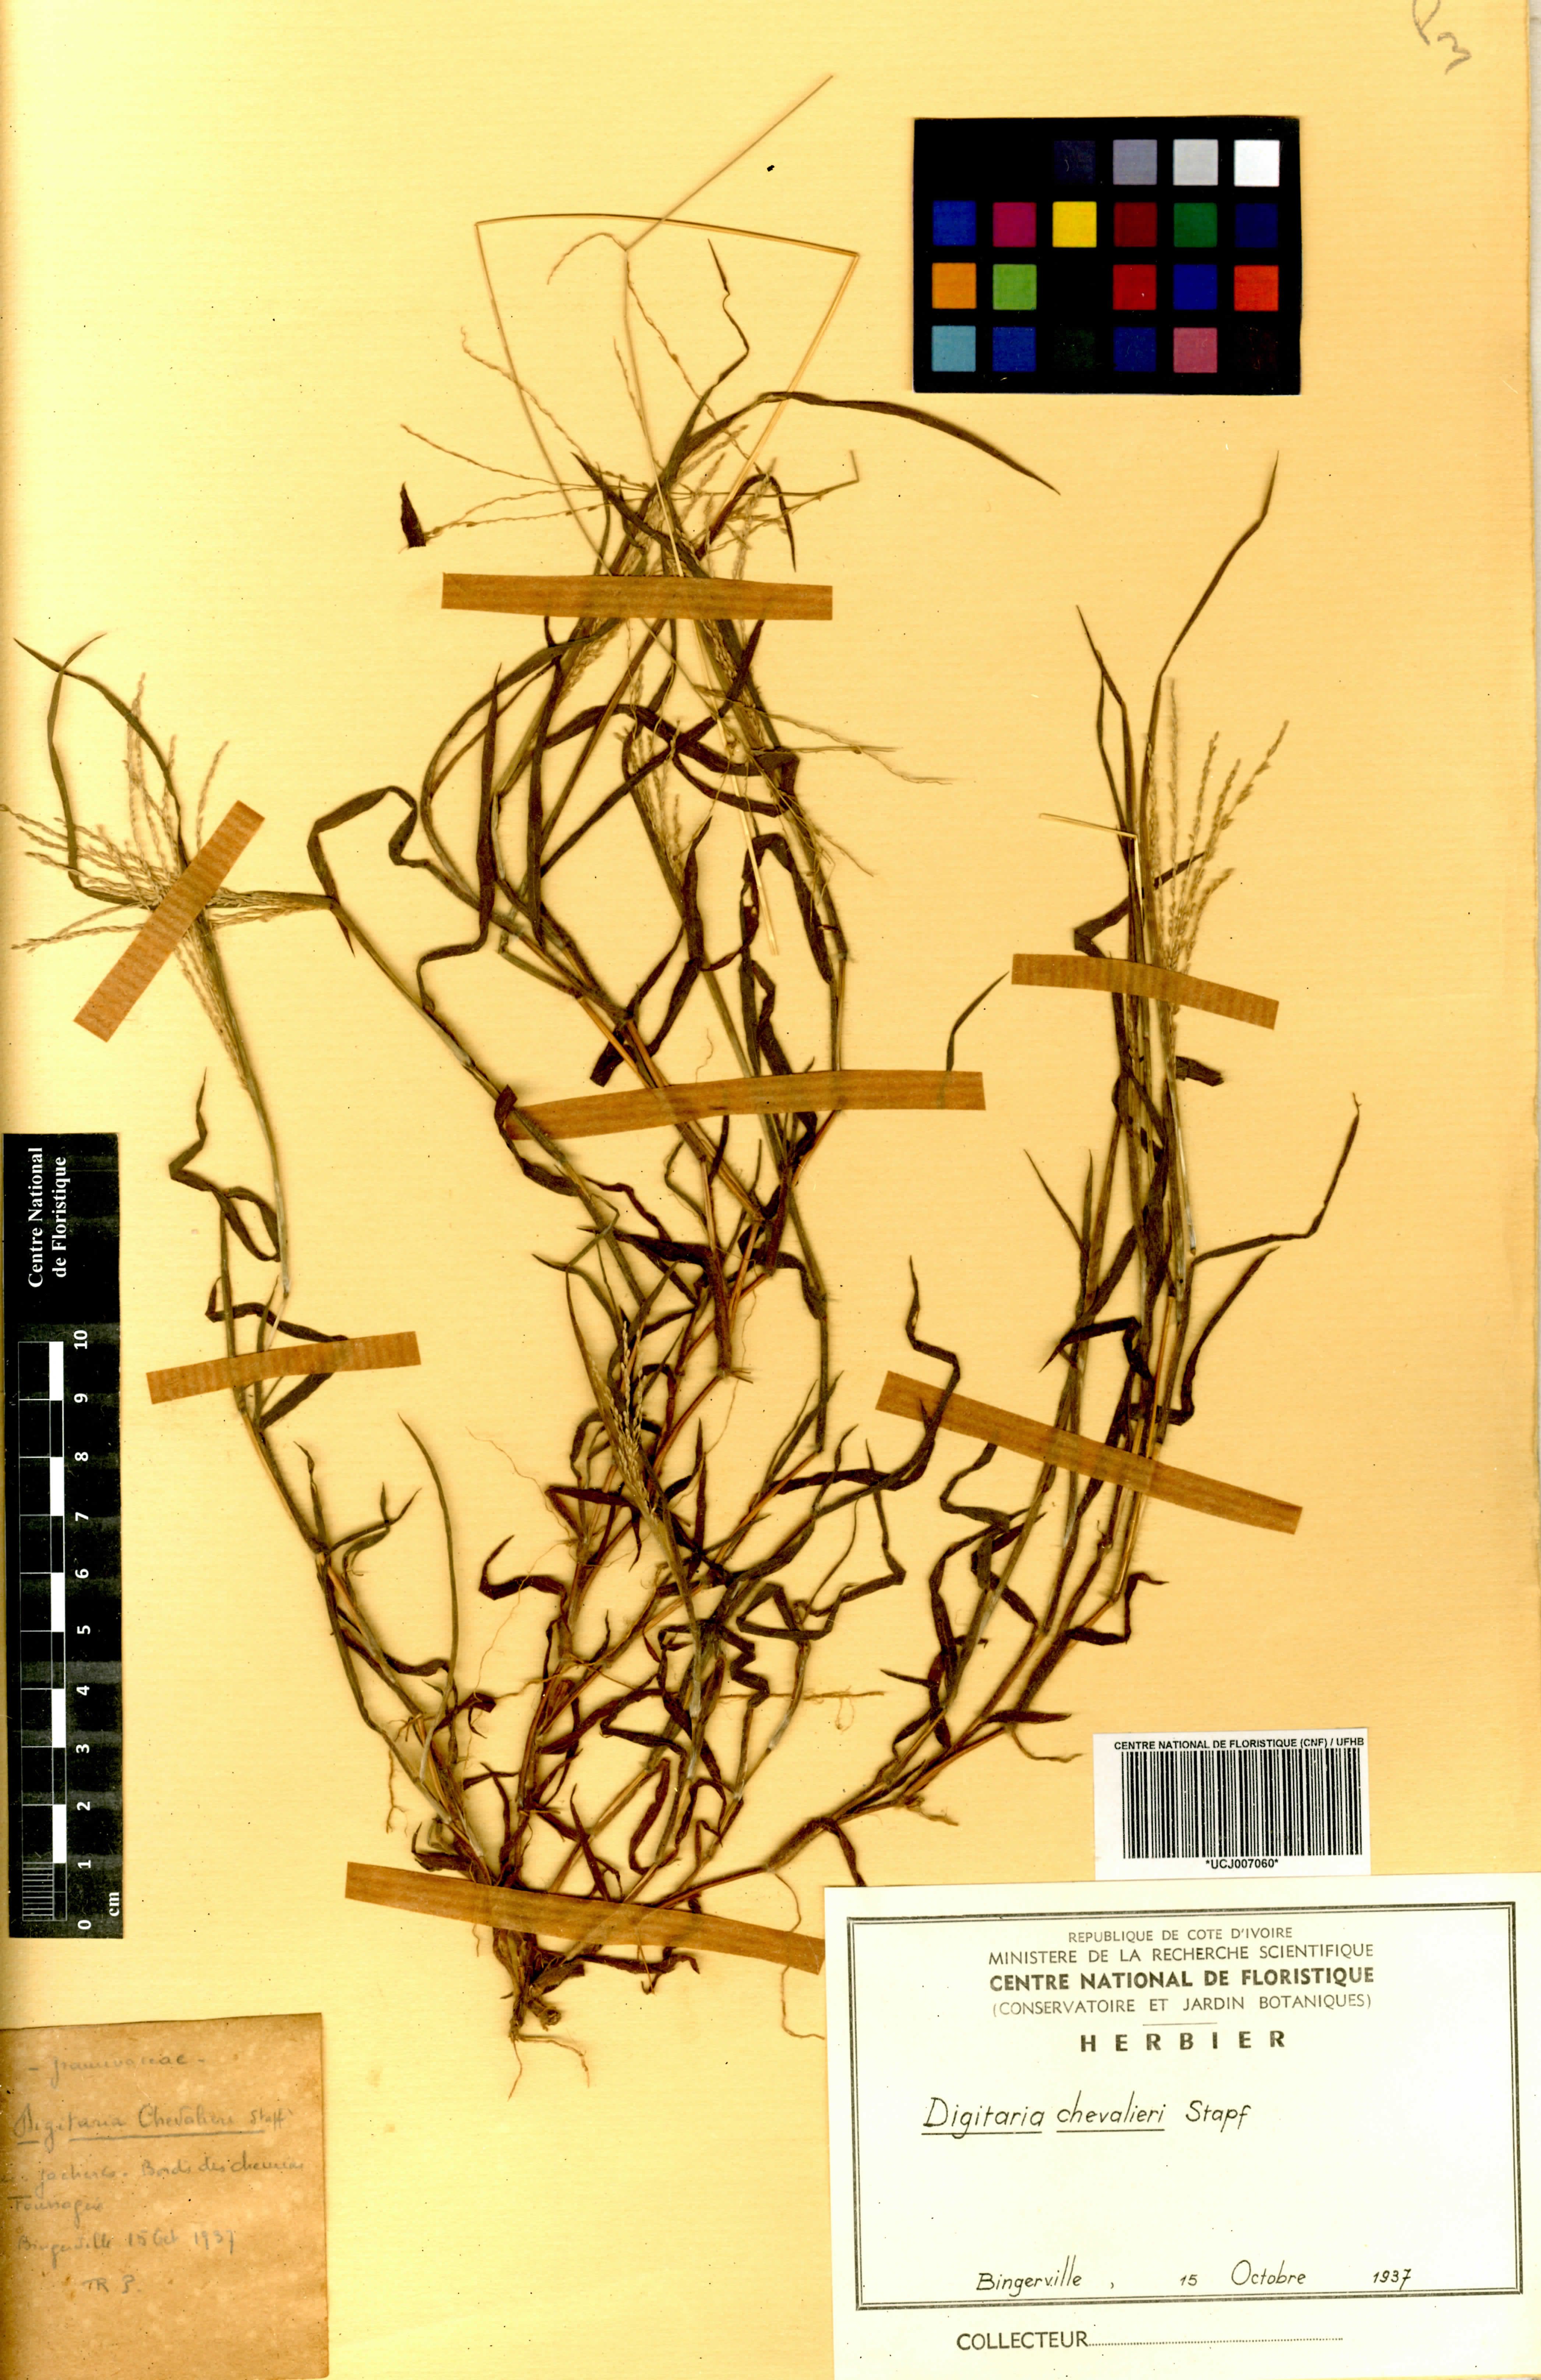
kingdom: Plantae
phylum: Tracheophyta
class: Liliopsida
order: Poales
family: Poaceae
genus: Digitaria
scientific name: Digitaria leptorhachis
